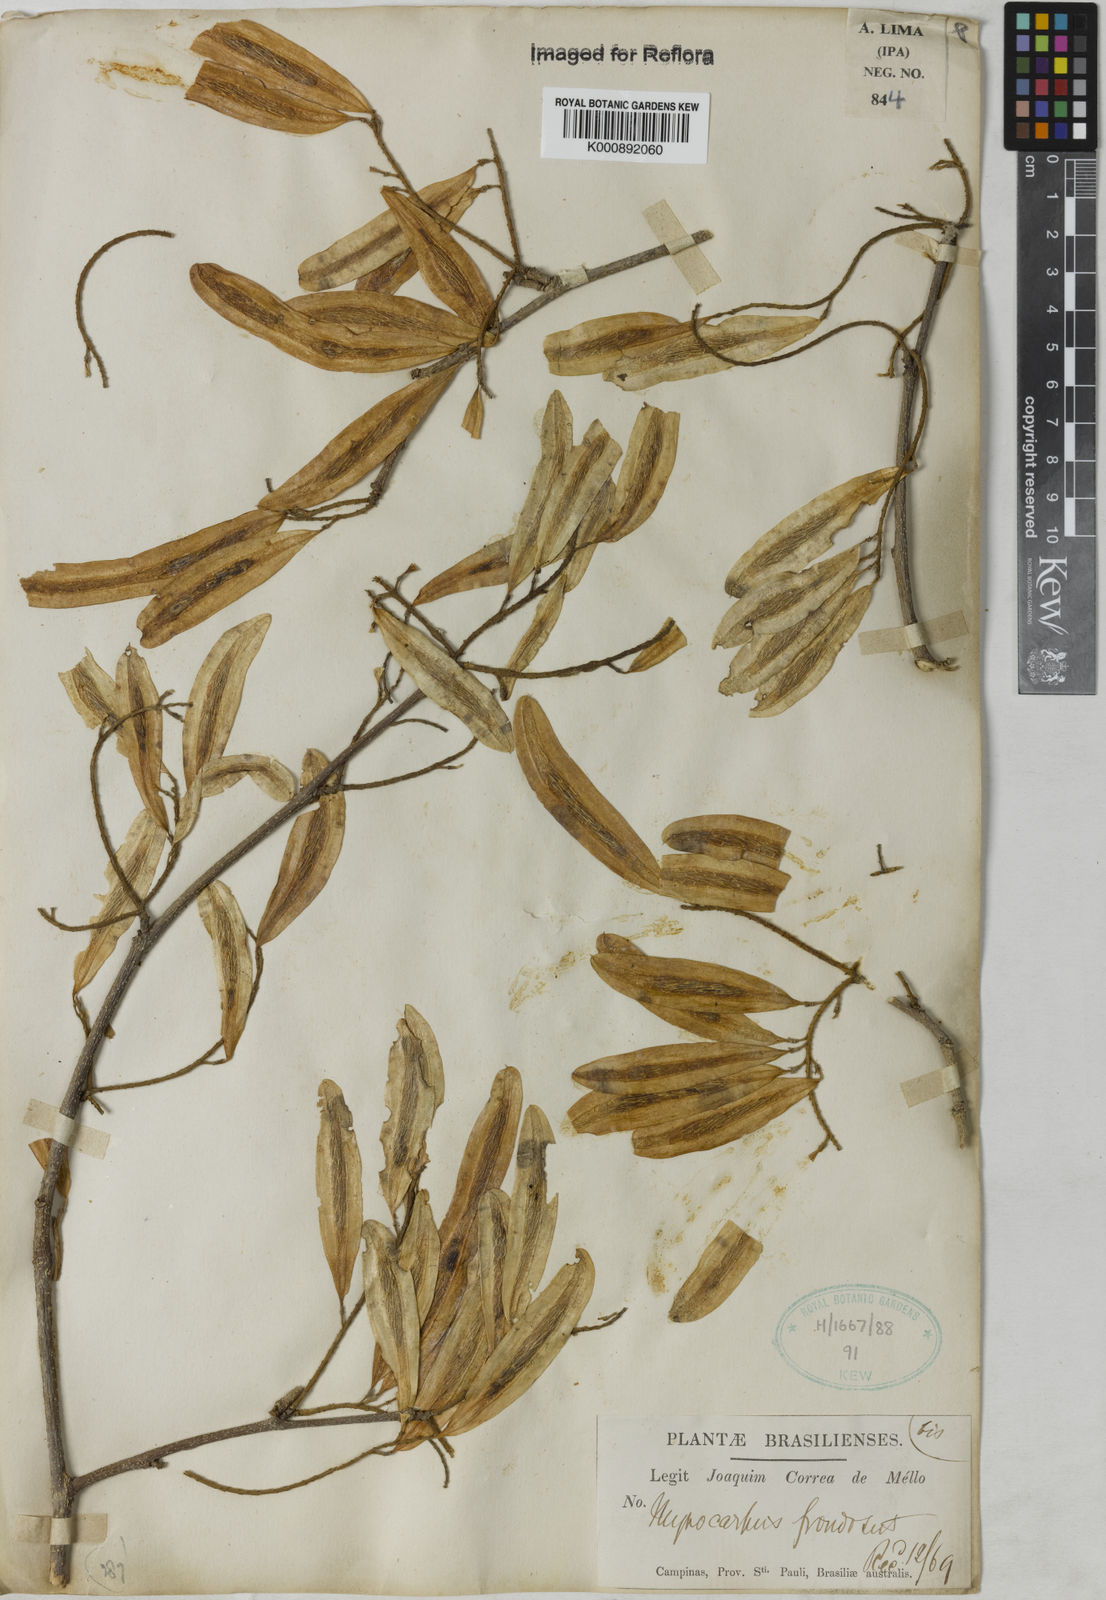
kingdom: Plantae
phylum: Tracheophyta
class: Magnoliopsida
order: Fabales
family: Fabaceae
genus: Myrocarpus
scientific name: Myrocarpus
